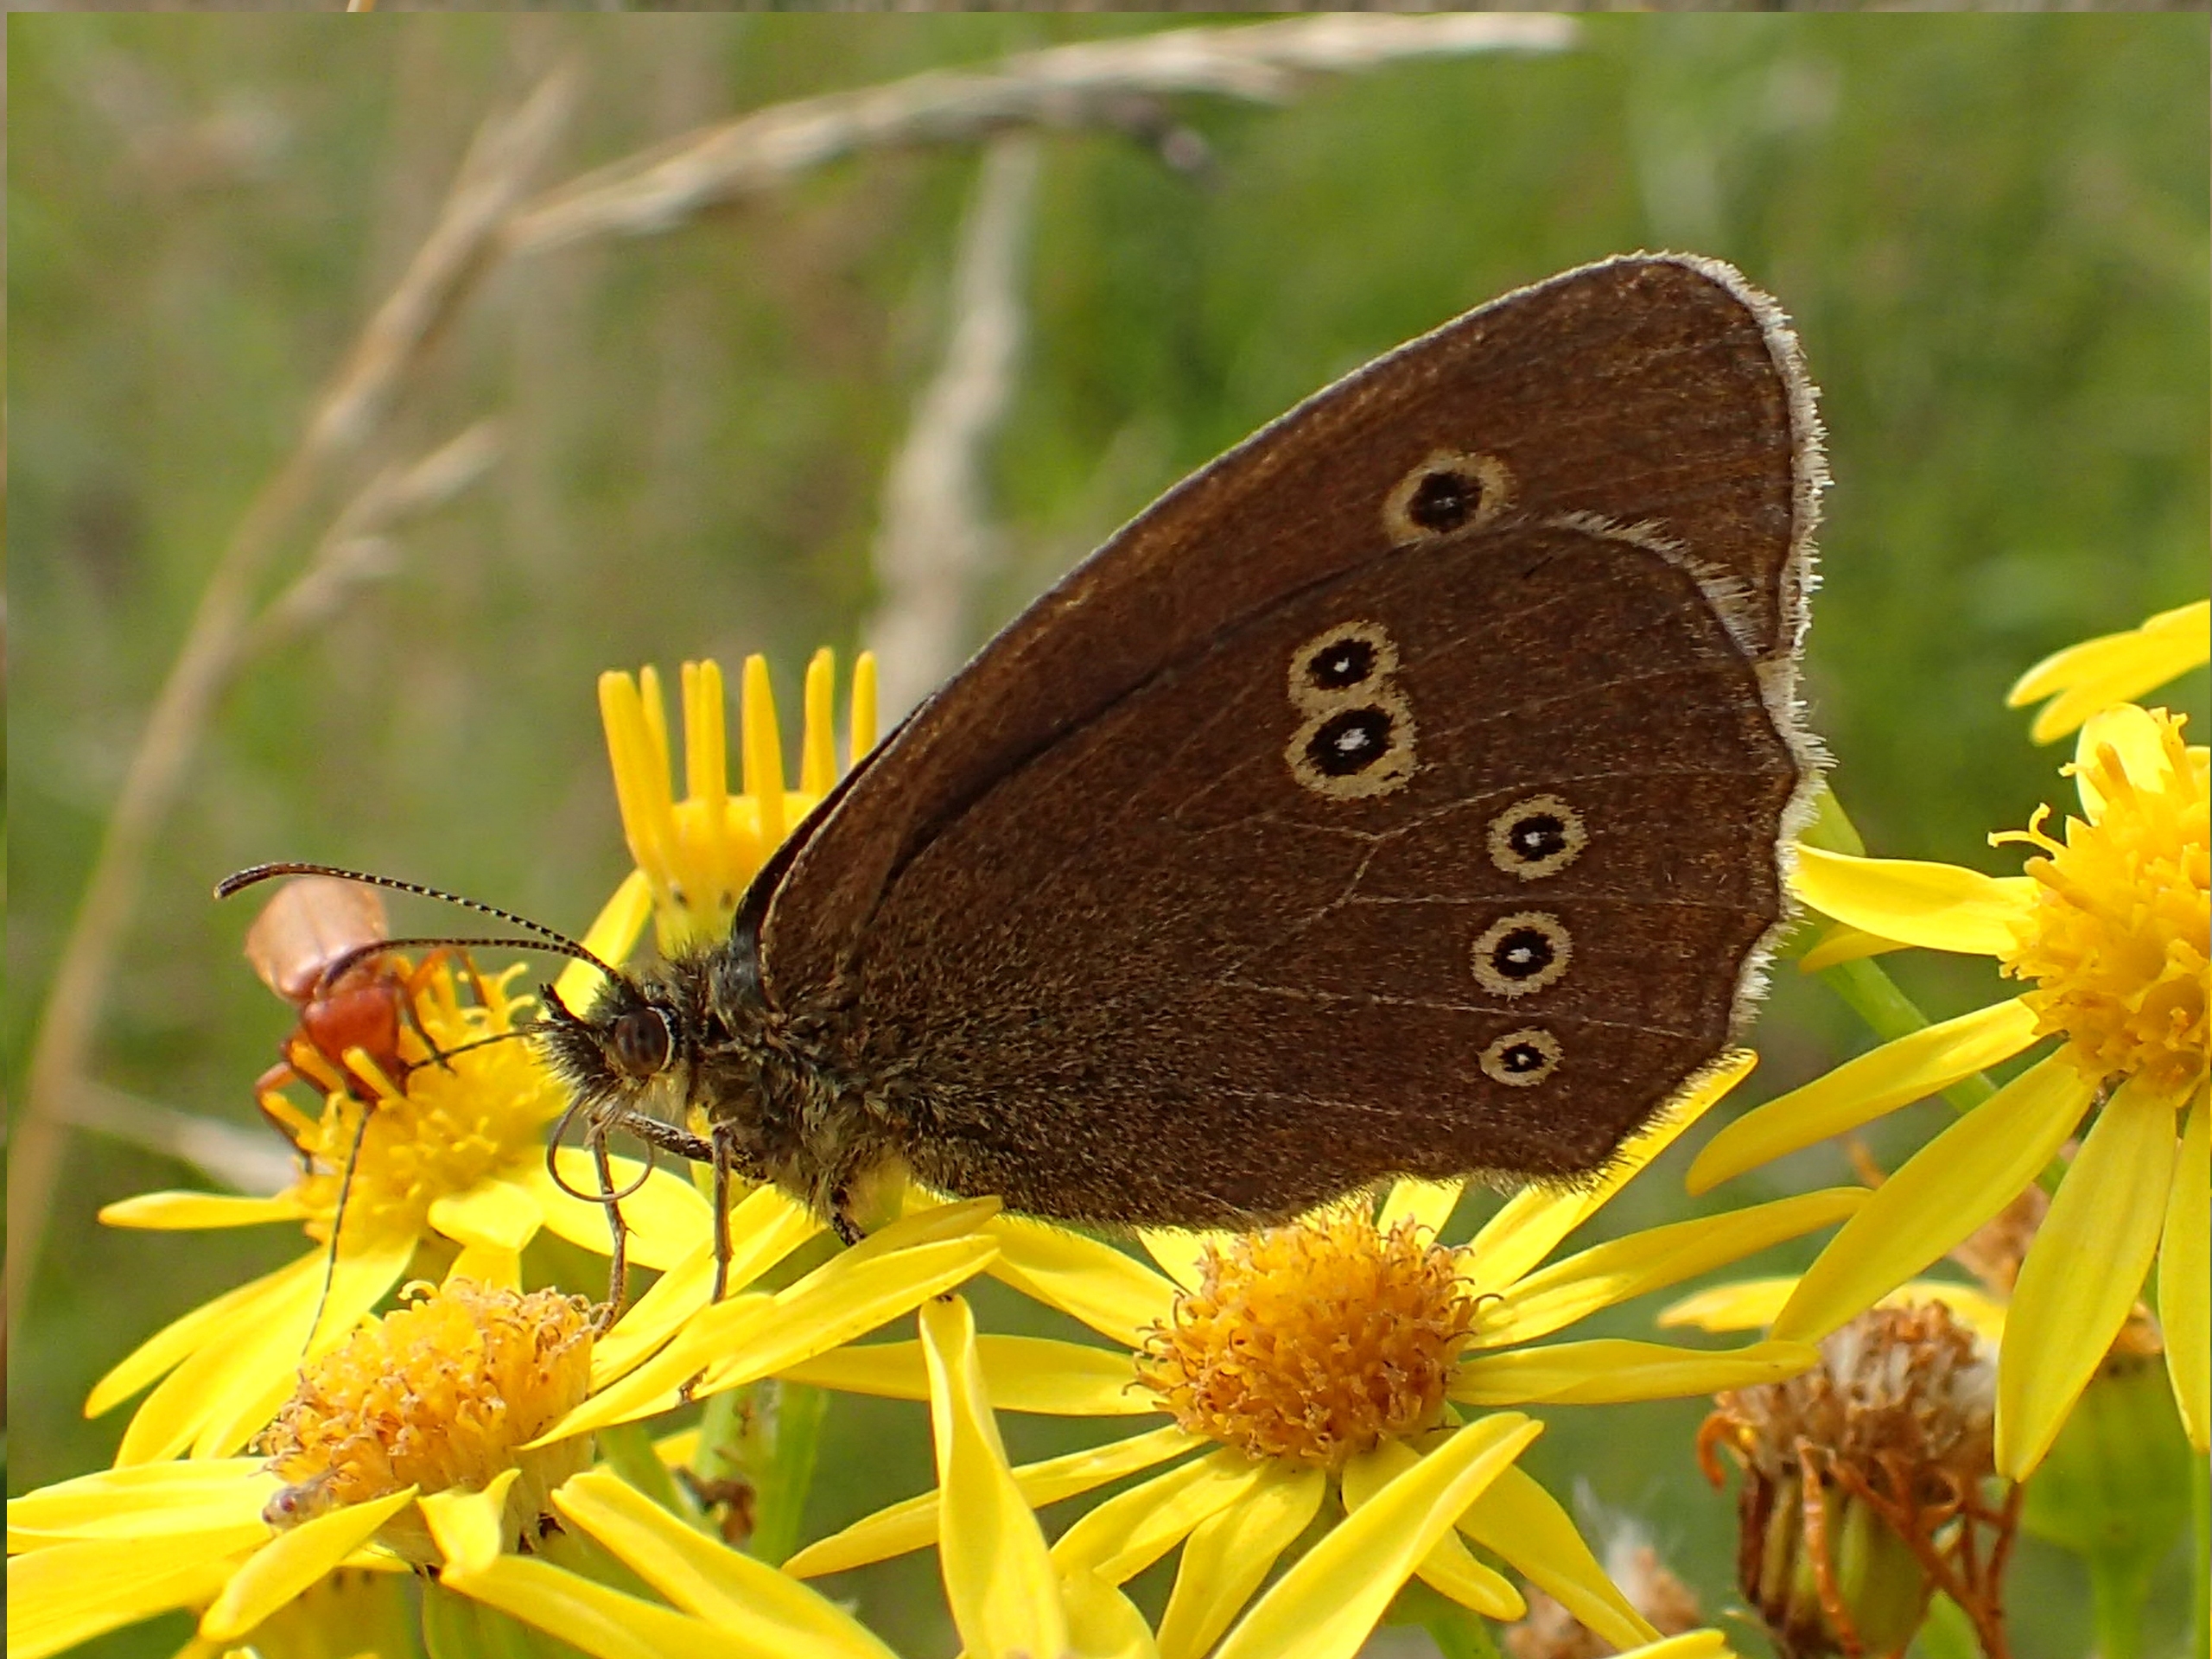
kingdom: Animalia
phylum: Arthropoda
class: Insecta
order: Lepidoptera
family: Nymphalidae
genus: Aphantopus
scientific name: Aphantopus hyperantus
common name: Engrandøje
